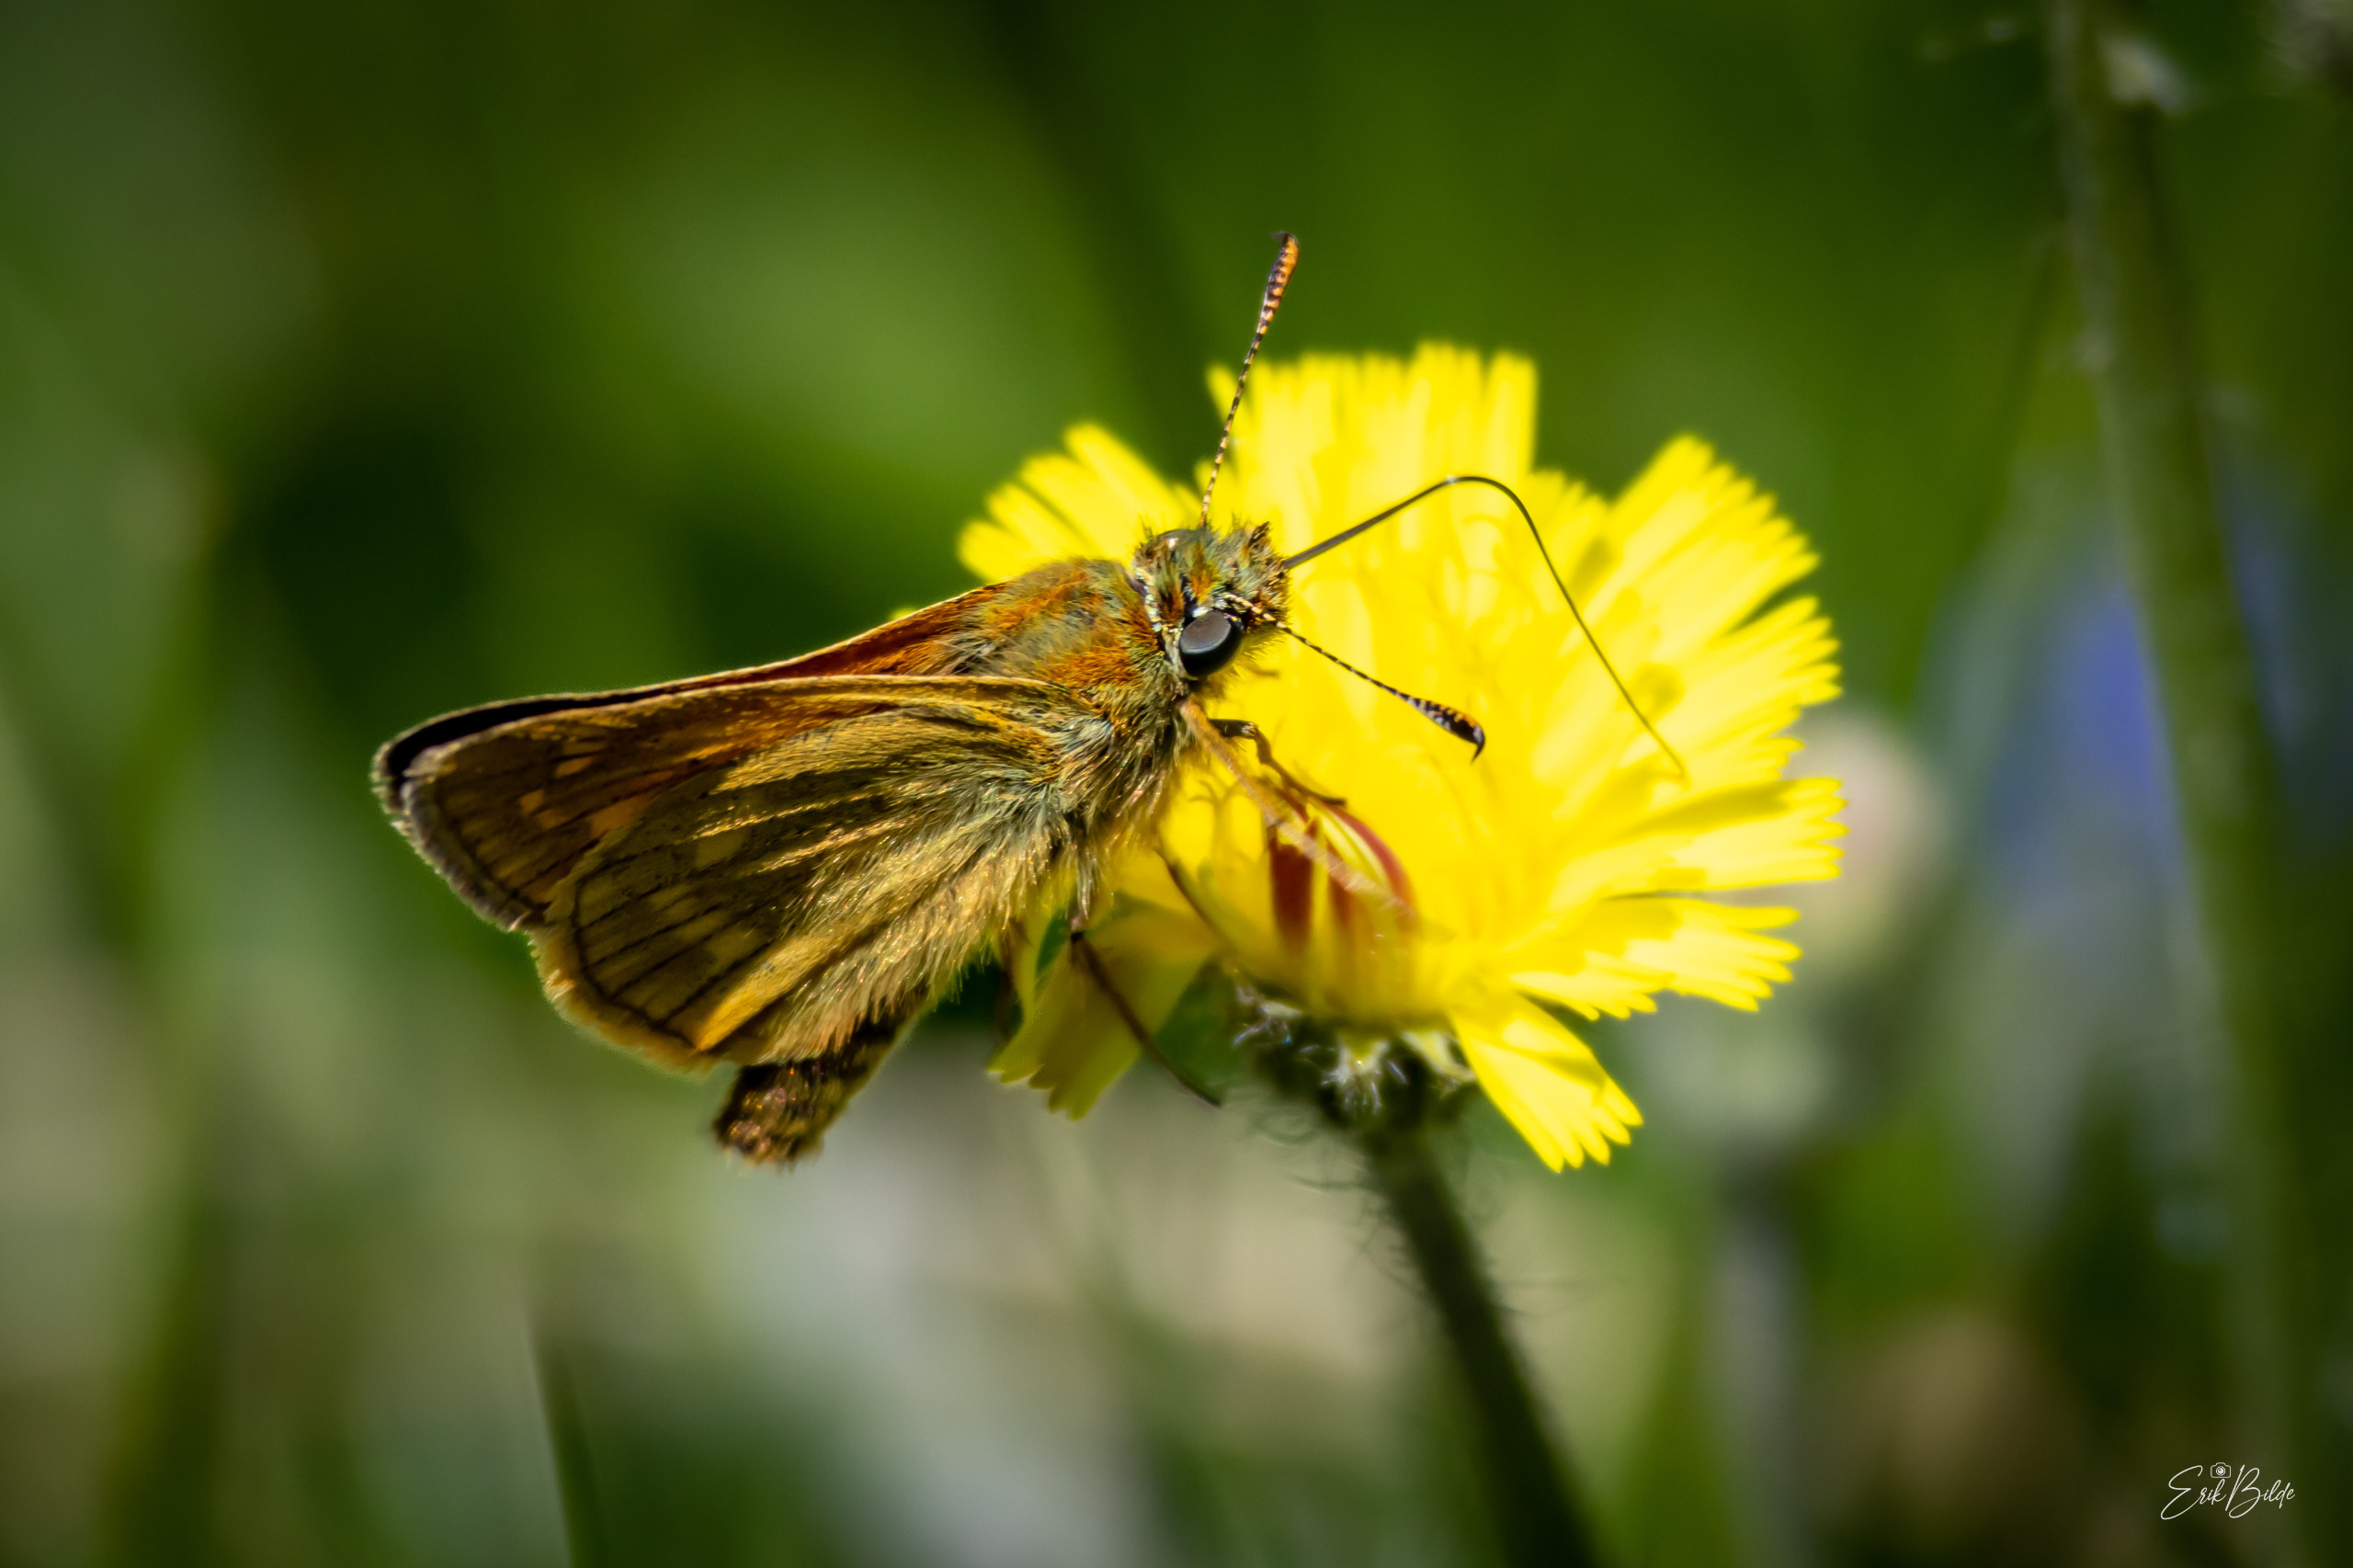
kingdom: Animalia
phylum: Arthropoda
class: Insecta
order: Lepidoptera
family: Hesperiidae
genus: Ochlodes
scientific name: Ochlodes venata
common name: Stor bredpande
